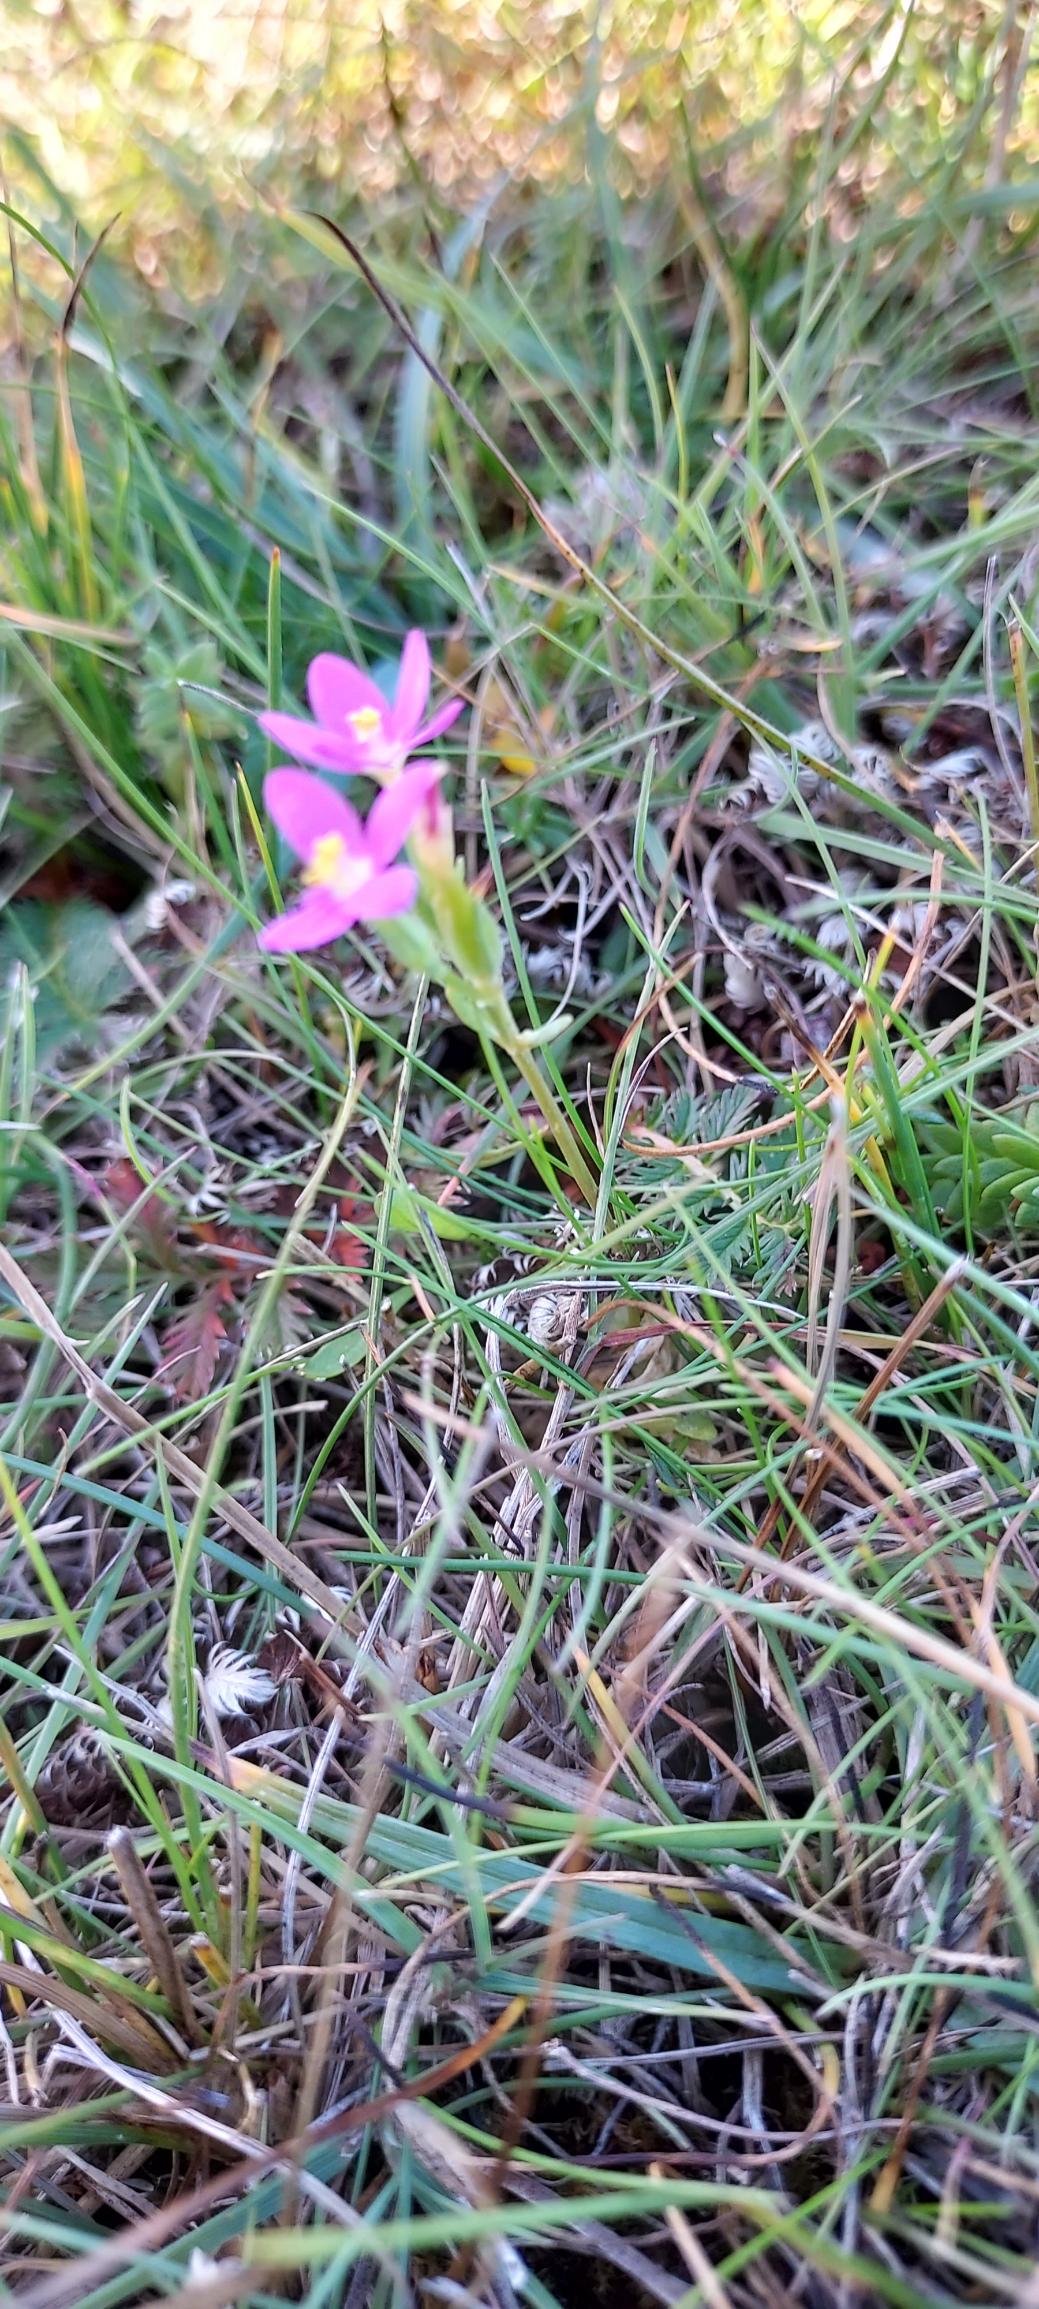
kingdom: Plantae
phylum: Tracheophyta
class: Magnoliopsida
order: Gentianales
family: Gentianaceae
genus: Centaurium
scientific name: Centaurium pulchellum
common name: Liden tusindgylden
